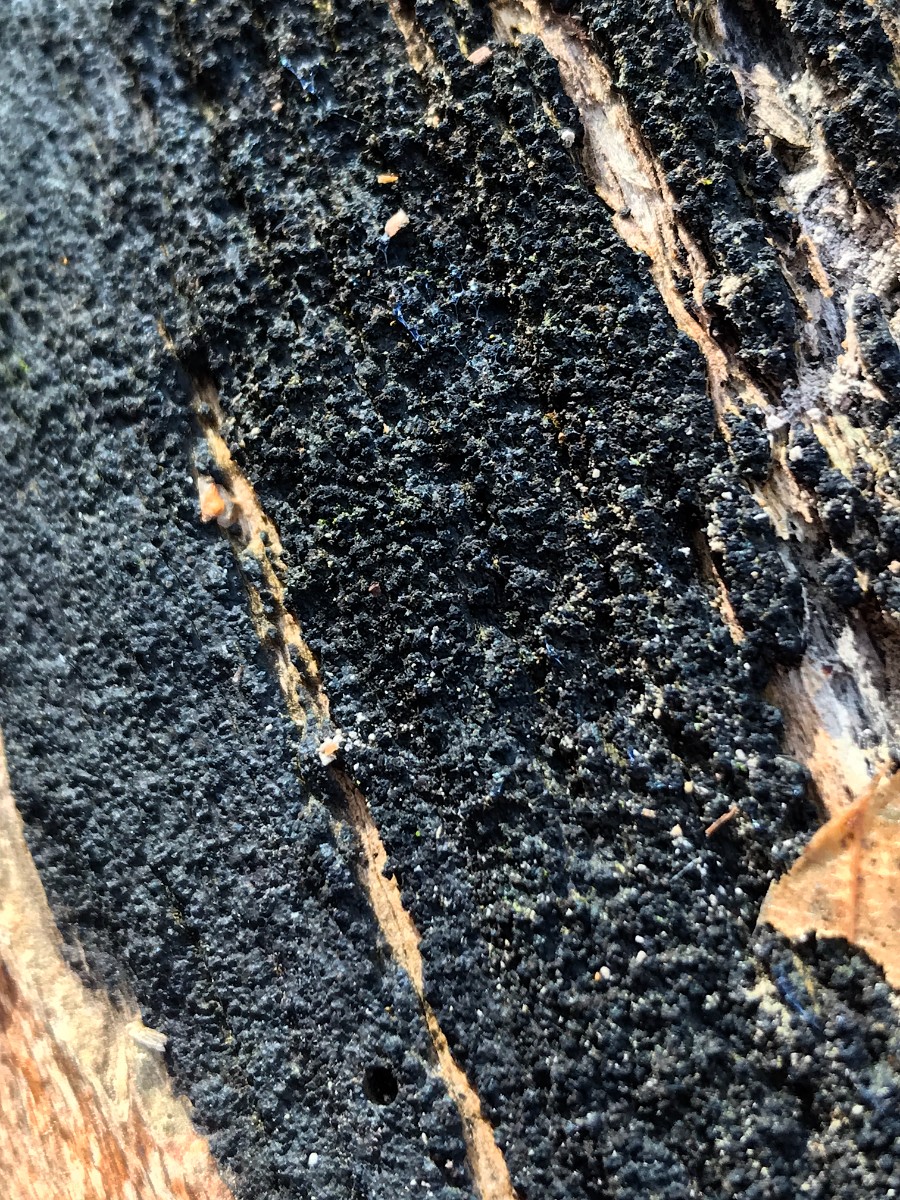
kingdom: Fungi
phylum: Ascomycota
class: Sordariomycetes
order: Xylariales
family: Diatrypaceae
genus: Eutypa
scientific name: Eutypa spinosa
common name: grov kulskorpe
